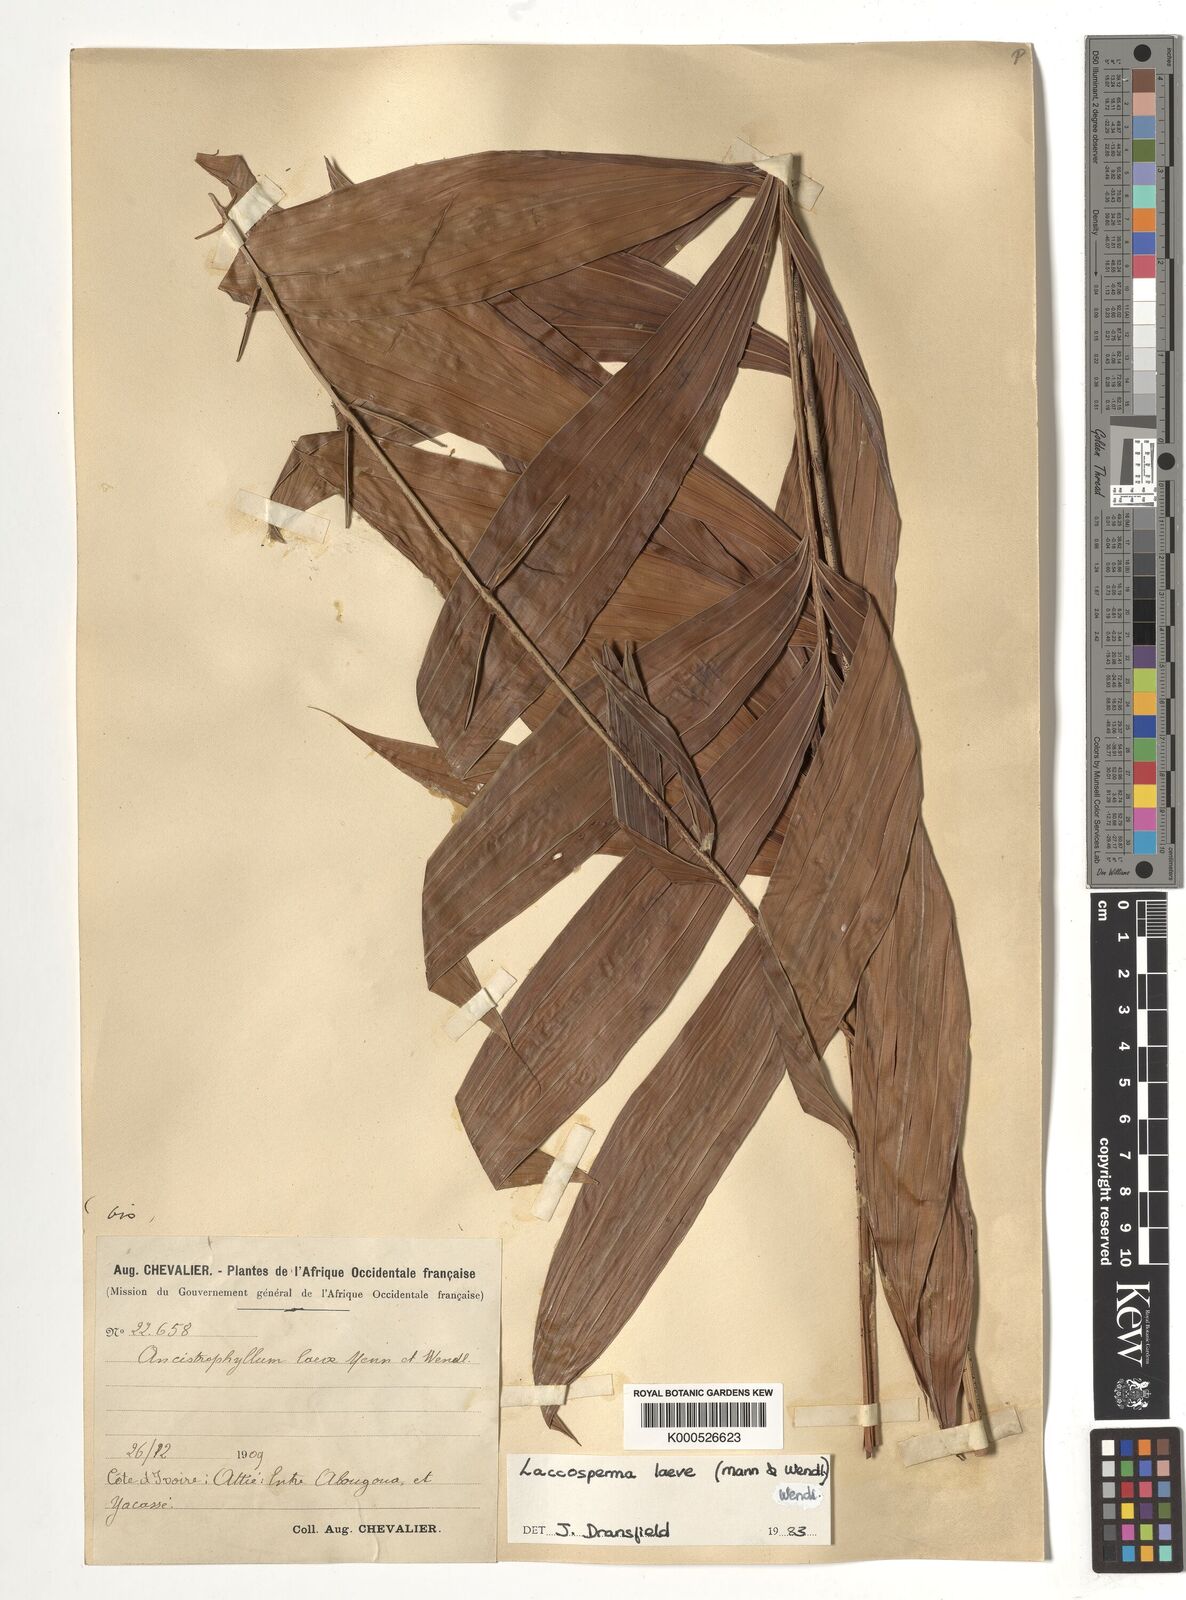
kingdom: Plantae
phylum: Tracheophyta
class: Liliopsida
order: Arecales
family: Arecaceae
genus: Laccosperma
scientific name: Laccosperma laeve
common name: Rattan
